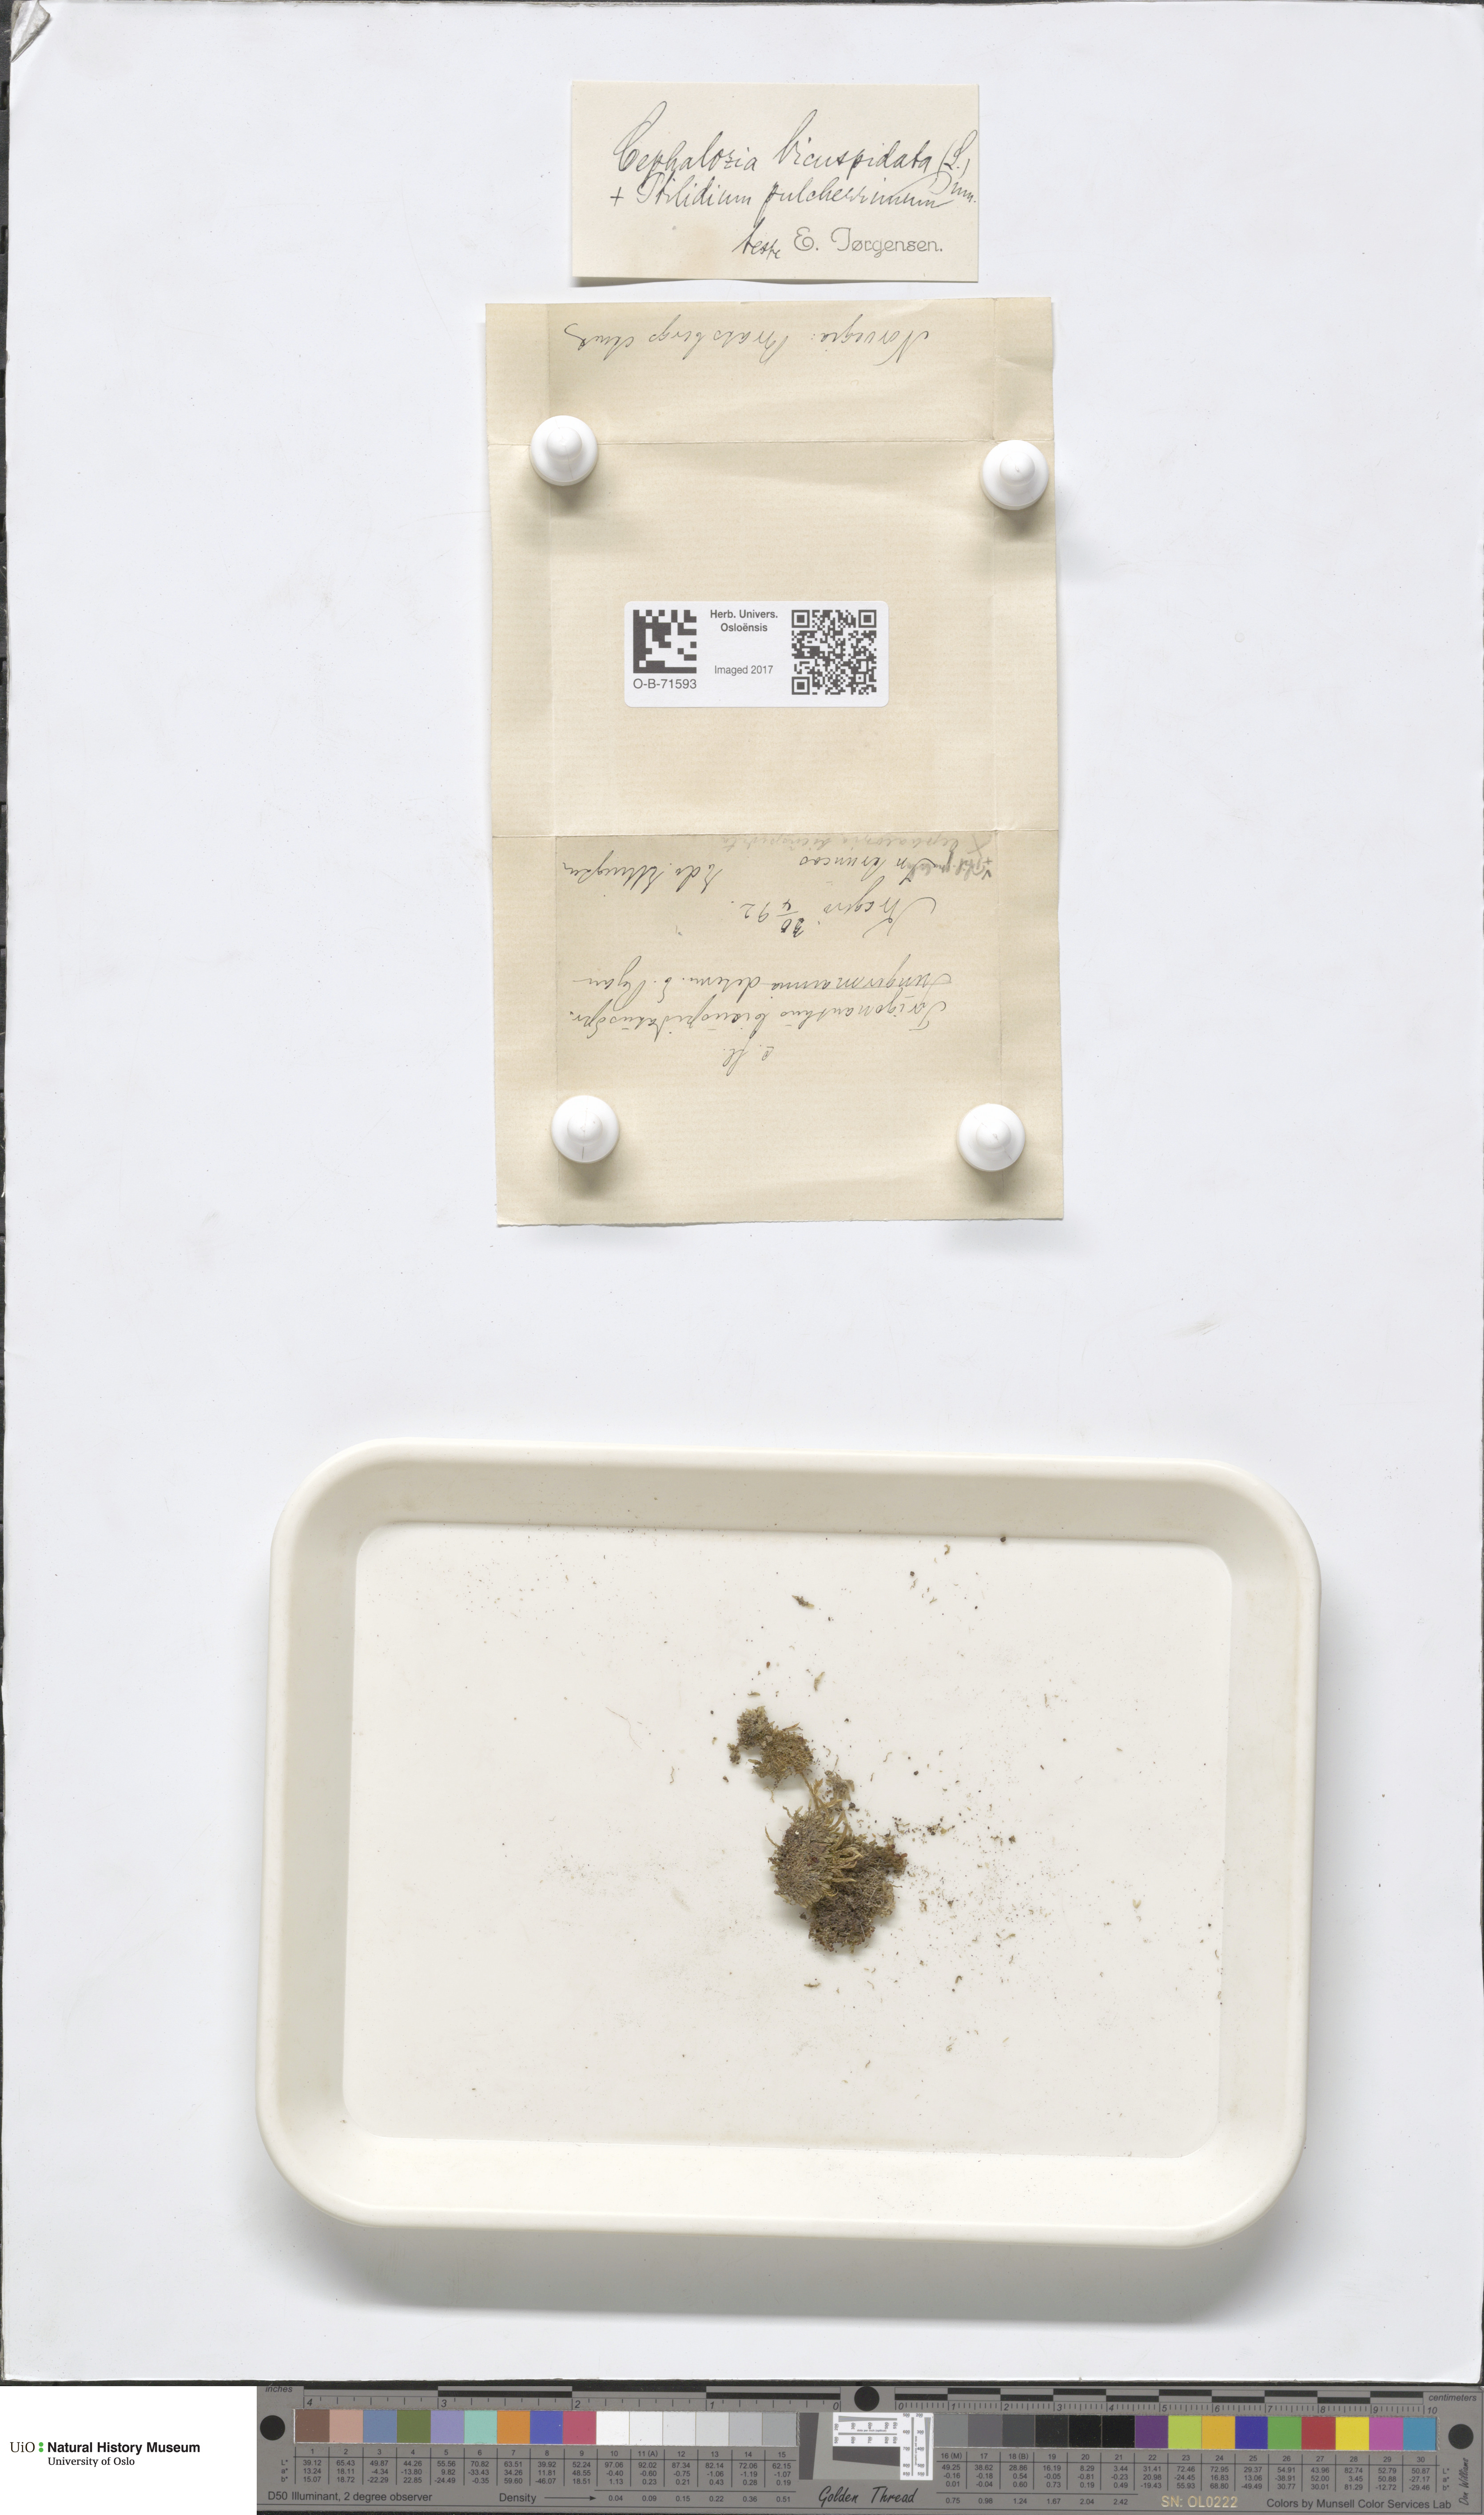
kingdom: Plantae
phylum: Marchantiophyta
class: Jungermanniopsida
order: Jungermanniales
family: Cephaloziaceae
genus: Cephalozia
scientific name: Cephalozia bicuspidata
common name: Two-horned pincerwort
